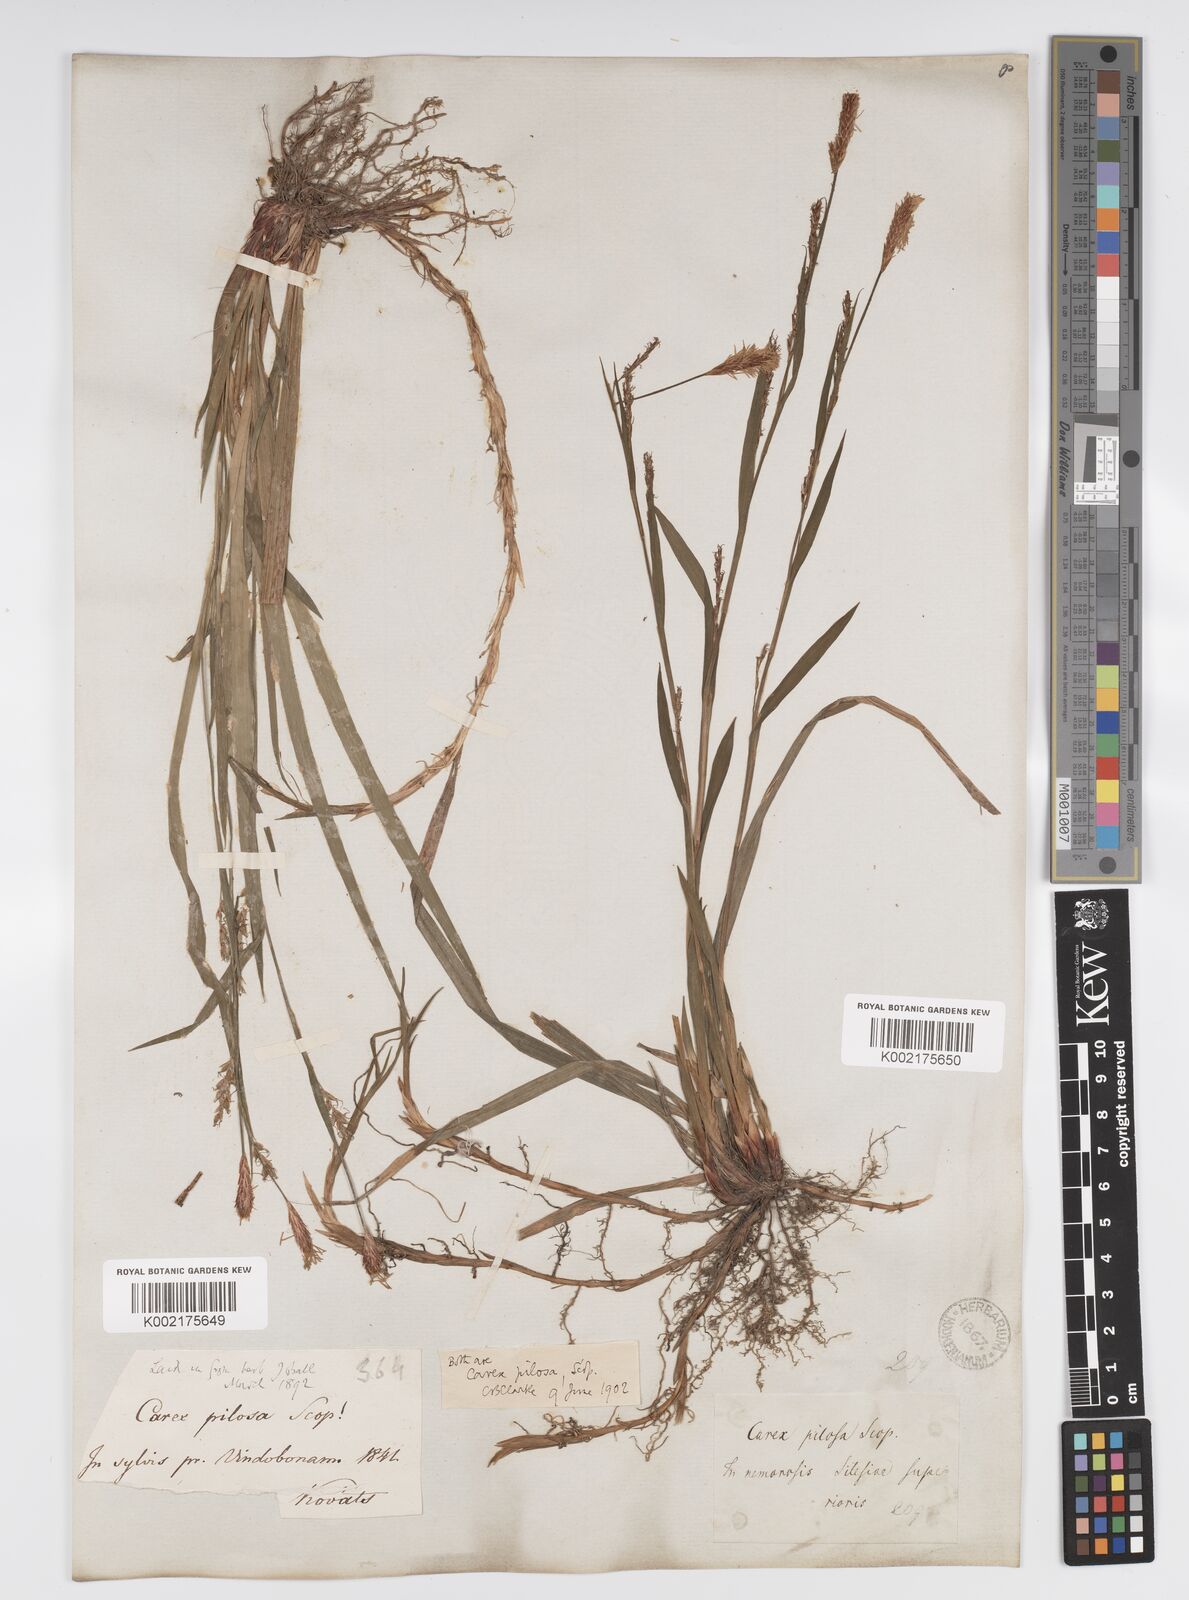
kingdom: Plantae
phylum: Tracheophyta
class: Liliopsida
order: Poales
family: Cyperaceae
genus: Carex
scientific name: Carex pilosa
